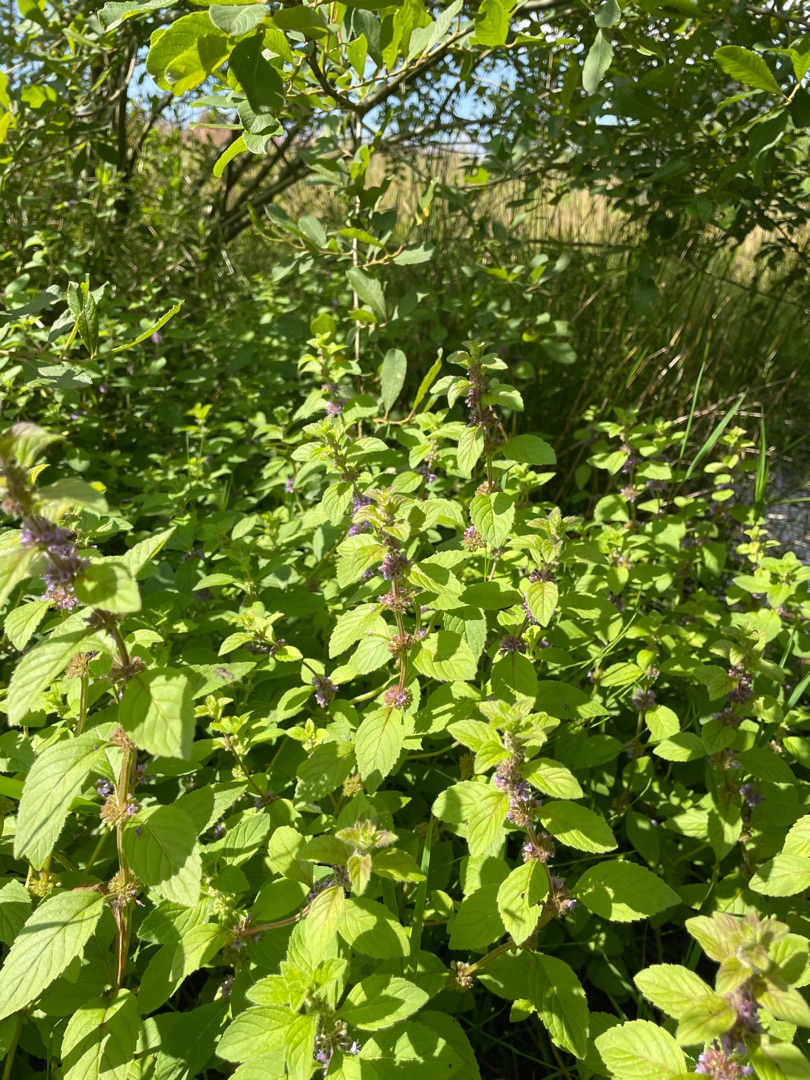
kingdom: Plantae
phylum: Tracheophyta
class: Magnoliopsida
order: Lamiales
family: Lamiaceae
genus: Mentha
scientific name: Mentha arvensis
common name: Ager-mynte
